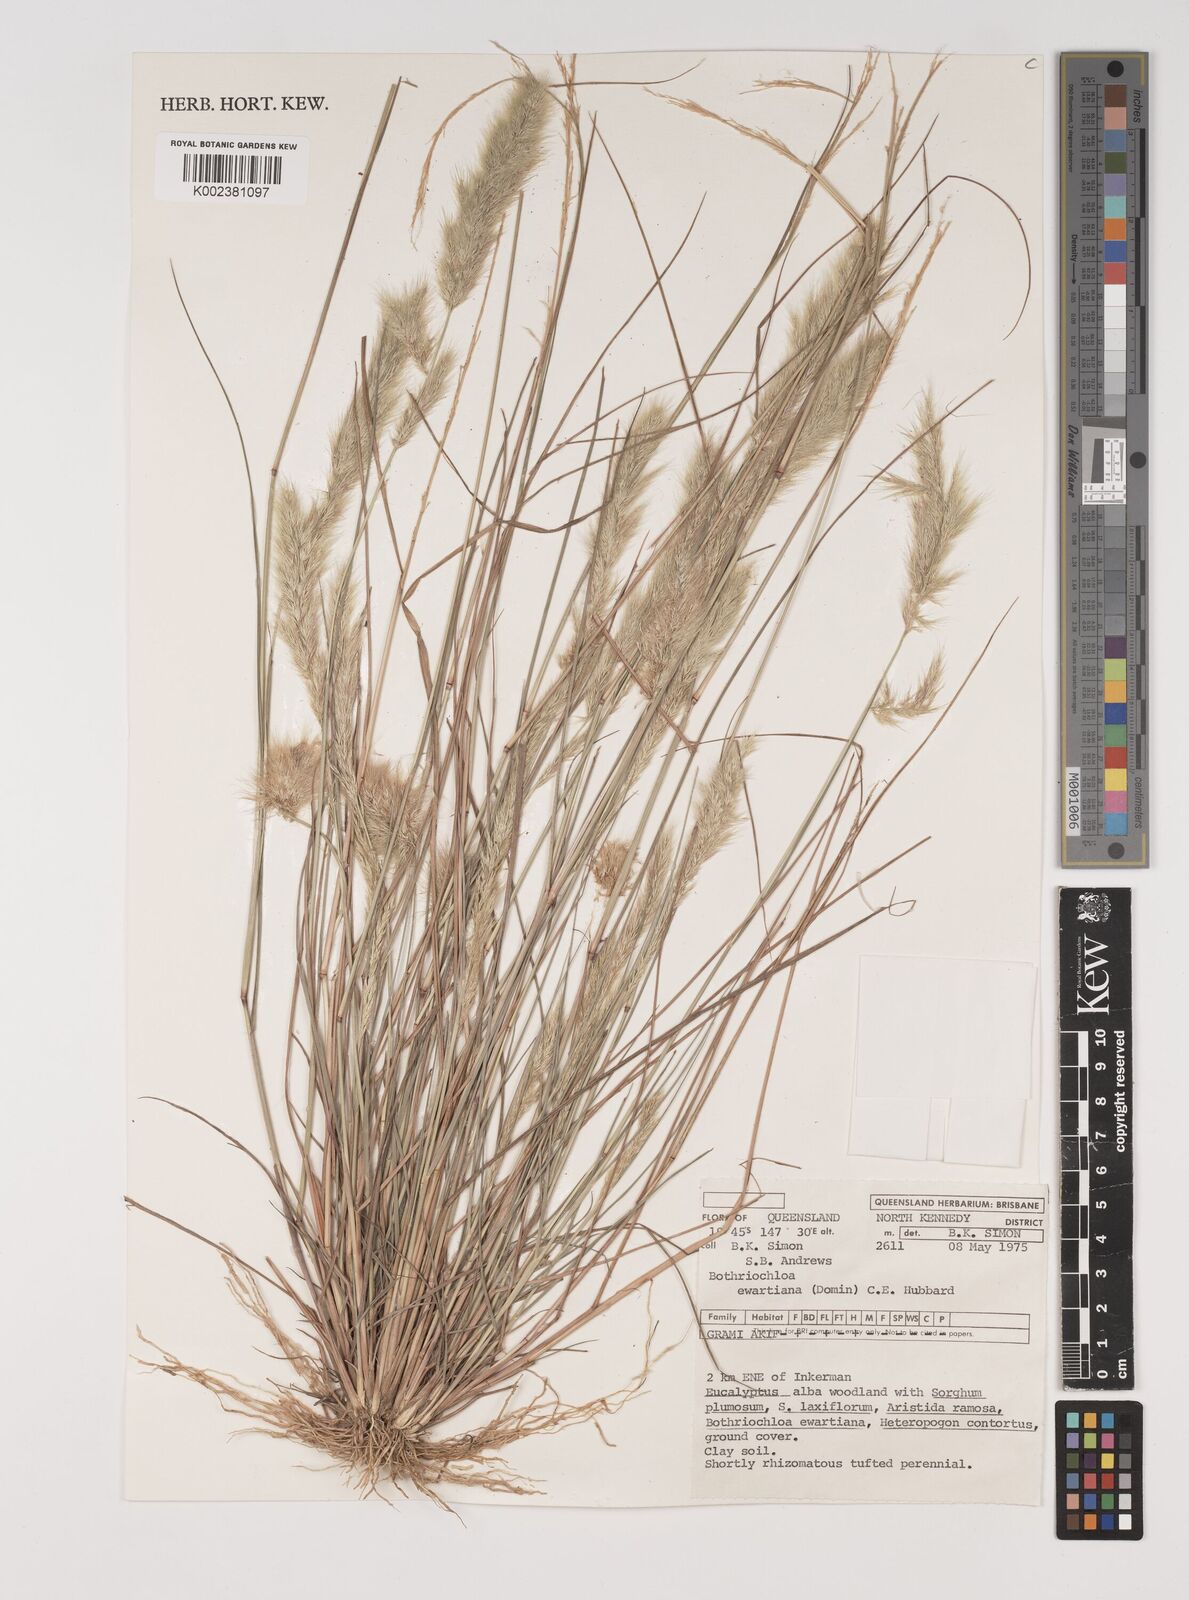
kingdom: Plantae
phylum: Tracheophyta
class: Liliopsida
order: Poales
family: Poaceae
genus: Bothriochloa
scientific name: Bothriochloa ewartiana
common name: Desert-bluegrass
